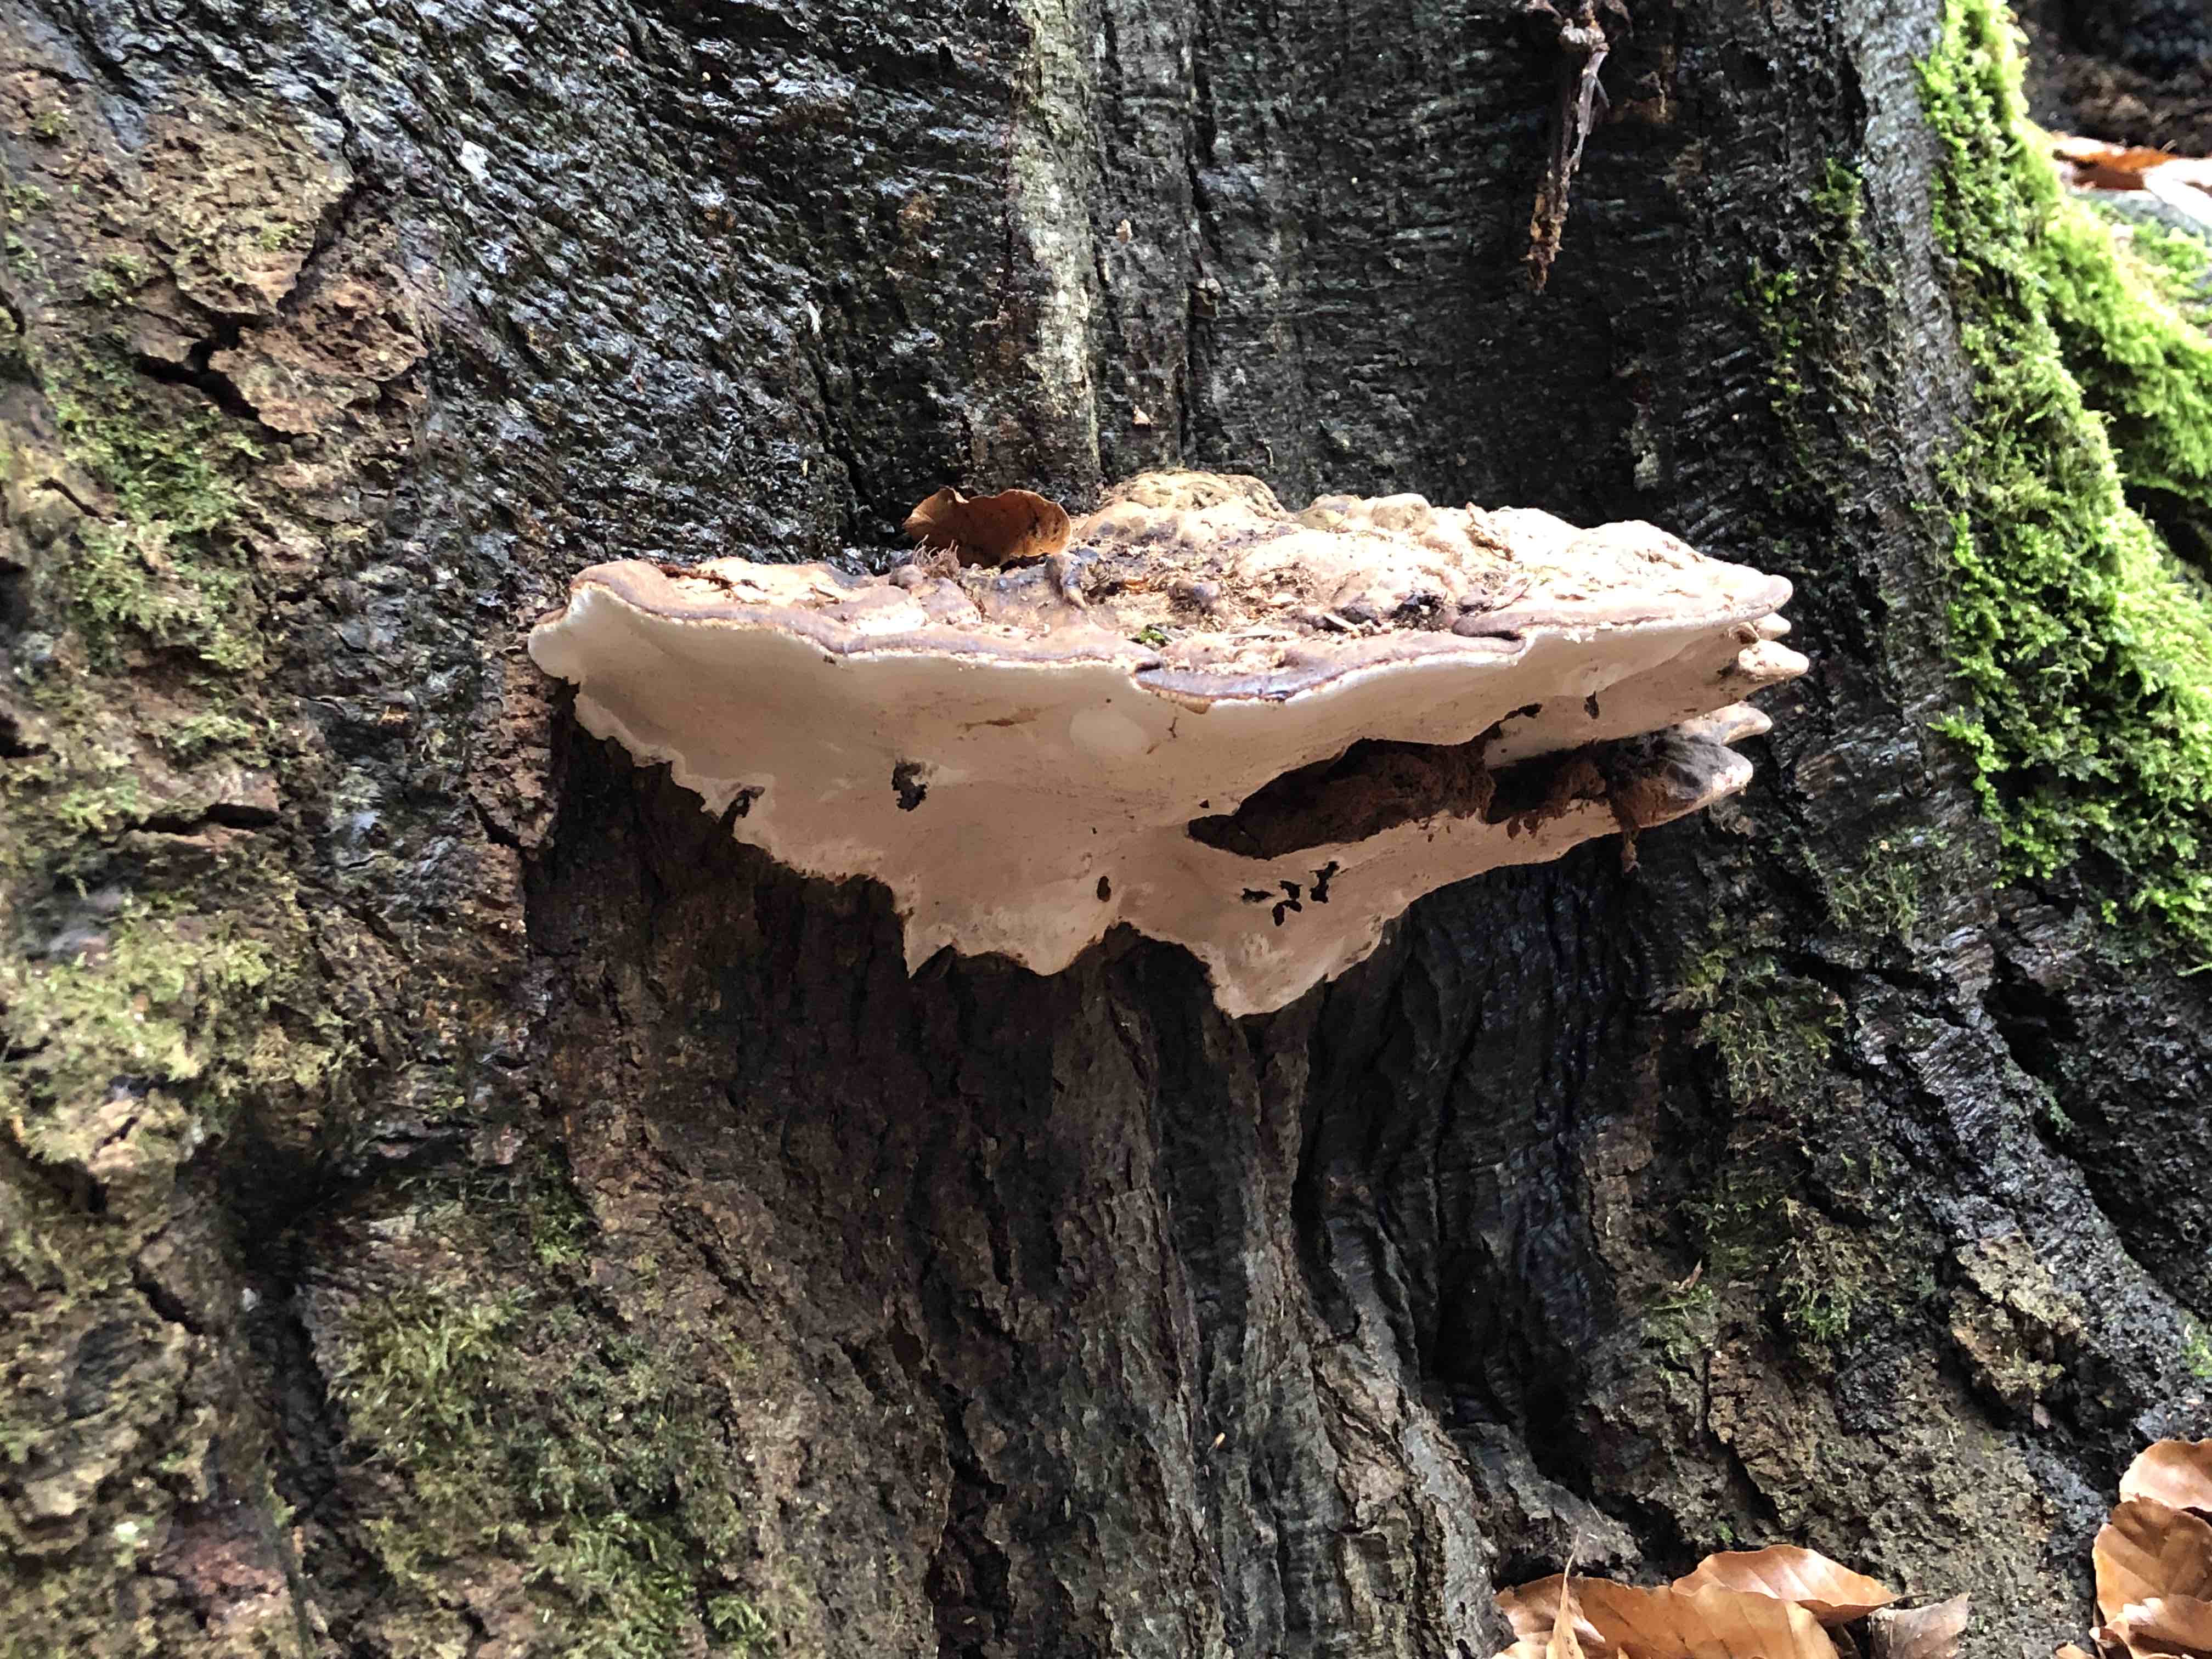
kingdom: Fungi
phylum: Basidiomycota
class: Agaricomycetes
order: Polyporales
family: Polyporaceae
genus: Ganoderma
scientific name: Ganoderma applanatum
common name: flad lakporesvamp
